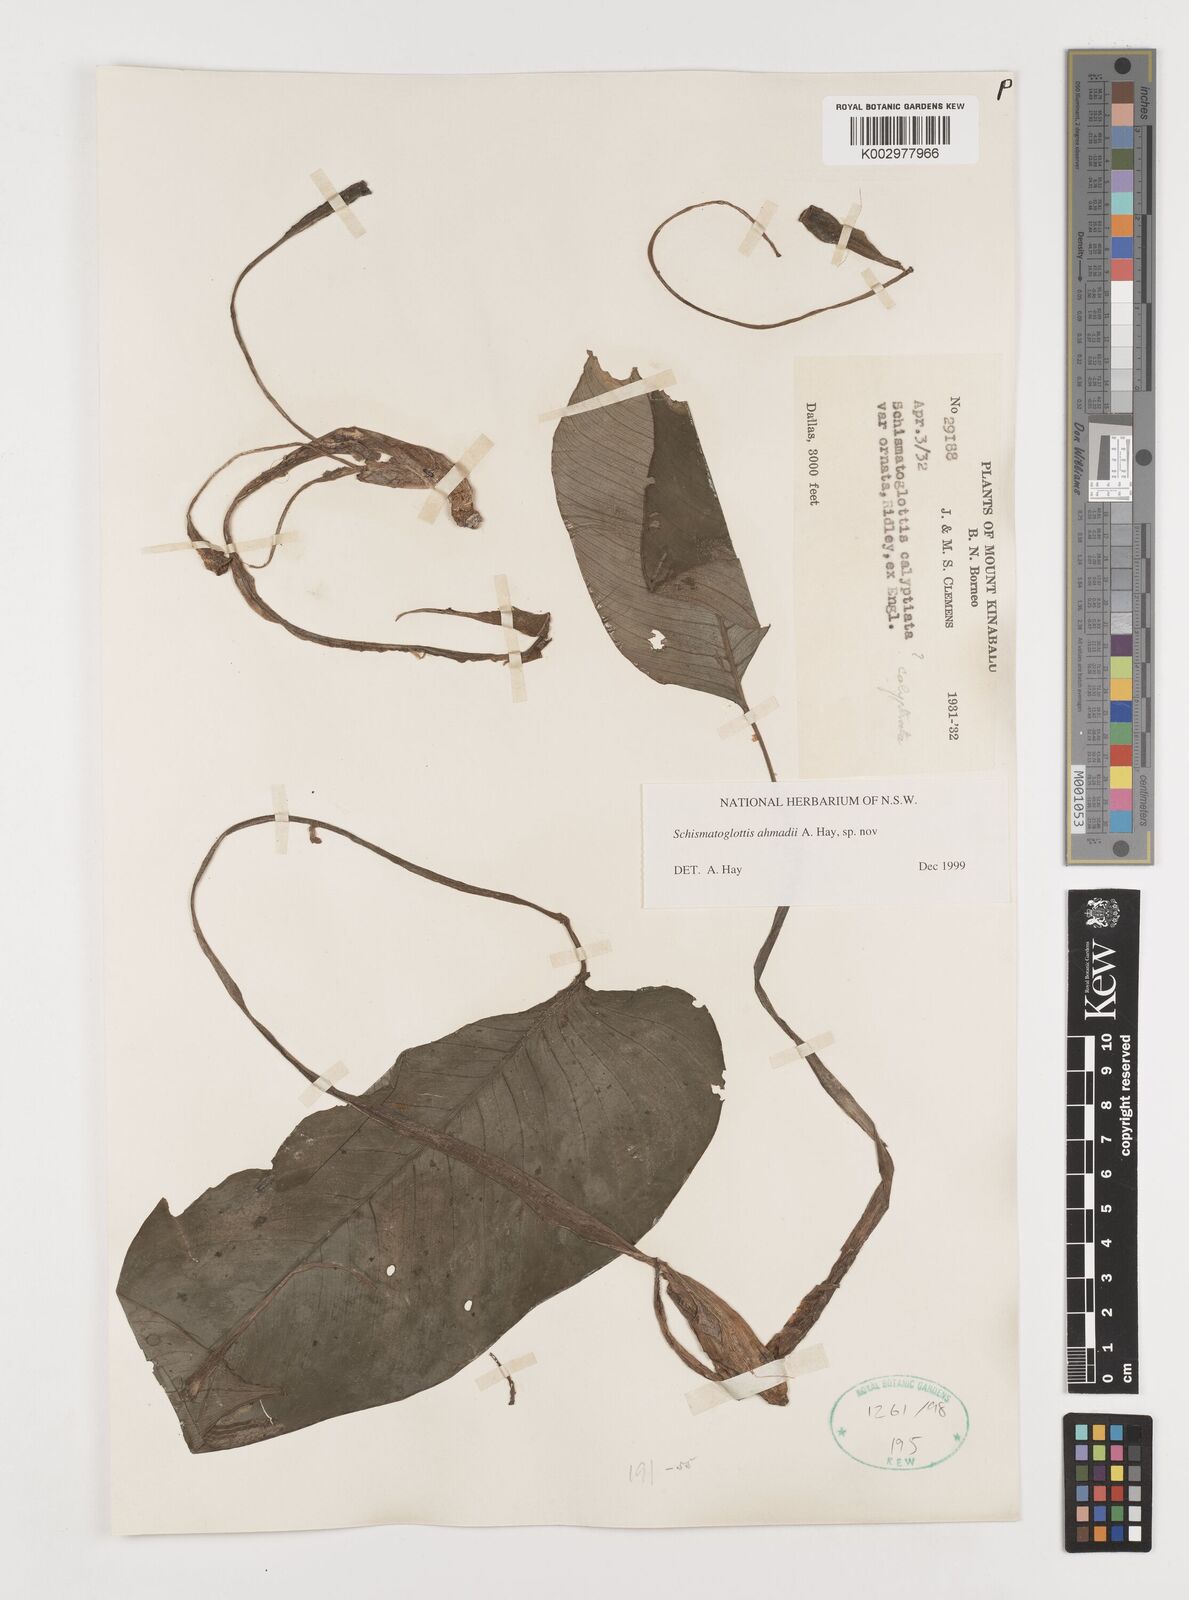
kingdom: Plantae
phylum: Tracheophyta
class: Liliopsida
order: Alismatales
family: Araceae
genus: Schismatoglottis
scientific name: Schismatoglottis ahmadii
